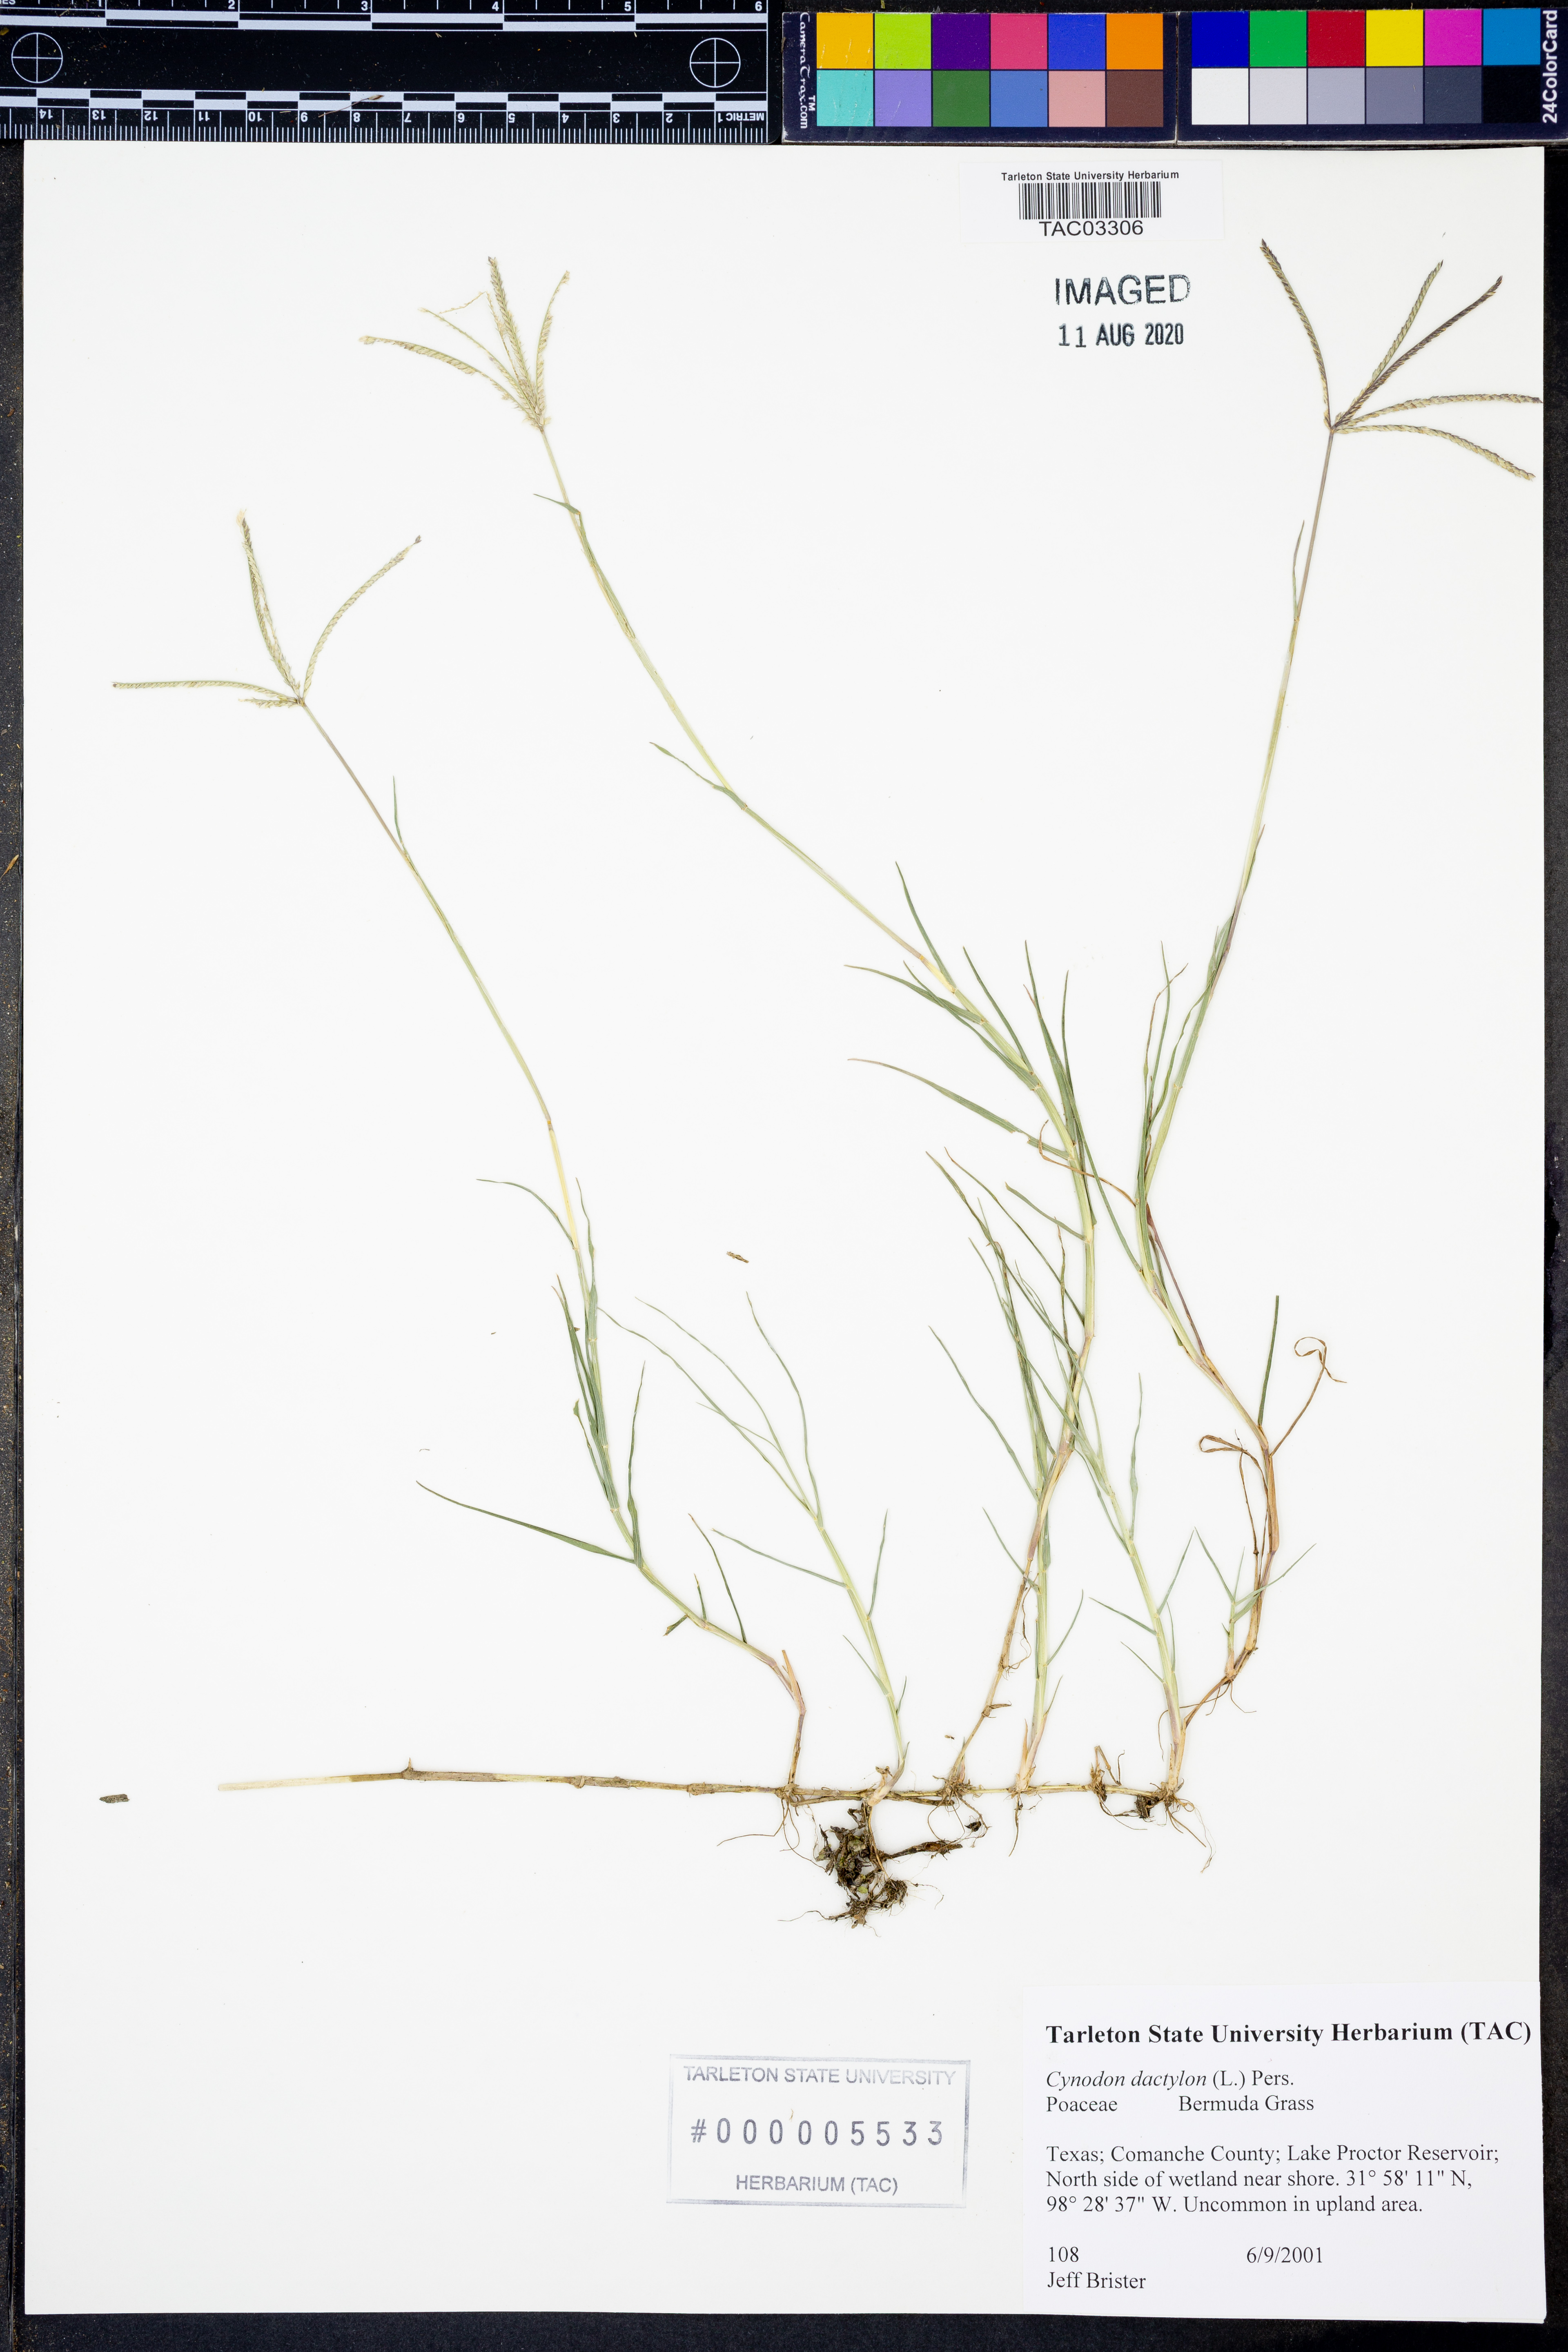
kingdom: Plantae
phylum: Tracheophyta
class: Liliopsida
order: Poales
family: Poaceae
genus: Cynodon
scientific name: Cynodon dactylon
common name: Bermuda grass
